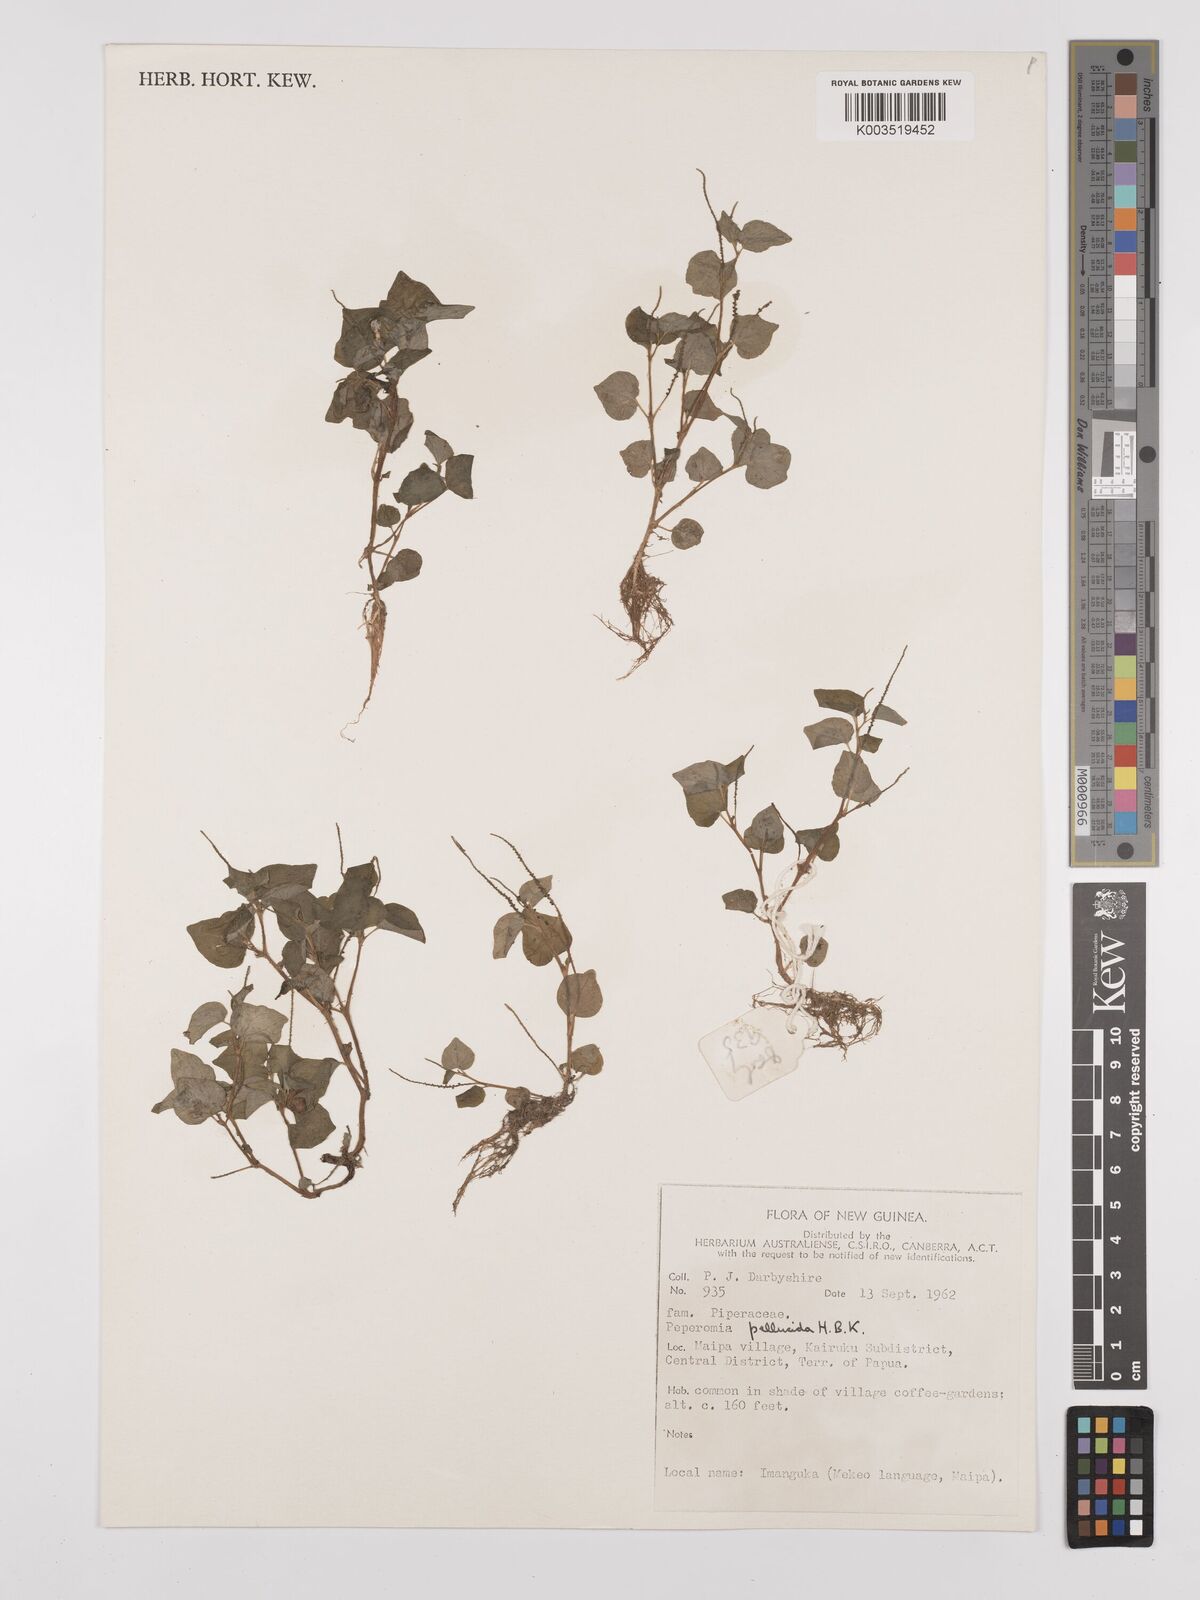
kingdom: Plantae
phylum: Tracheophyta
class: Magnoliopsida
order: Piperales
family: Piperaceae
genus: Peperomia
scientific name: Peperomia pellucida
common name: Man to man
